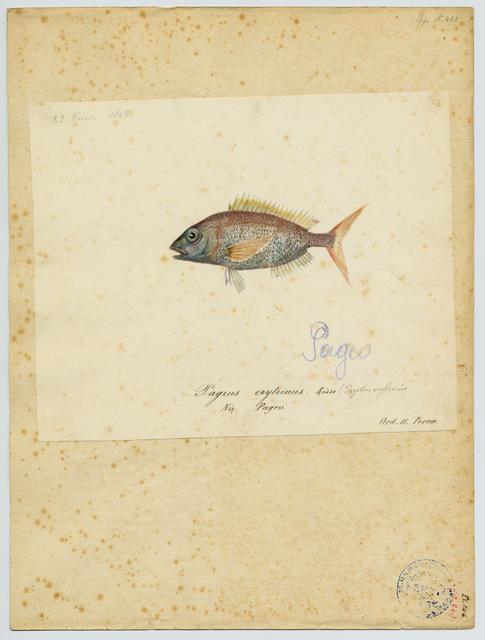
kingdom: Animalia
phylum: Chordata
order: Perciformes
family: Sparidae
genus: Pagellus
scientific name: Pagellus acarne
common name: Axillary sea-bream
